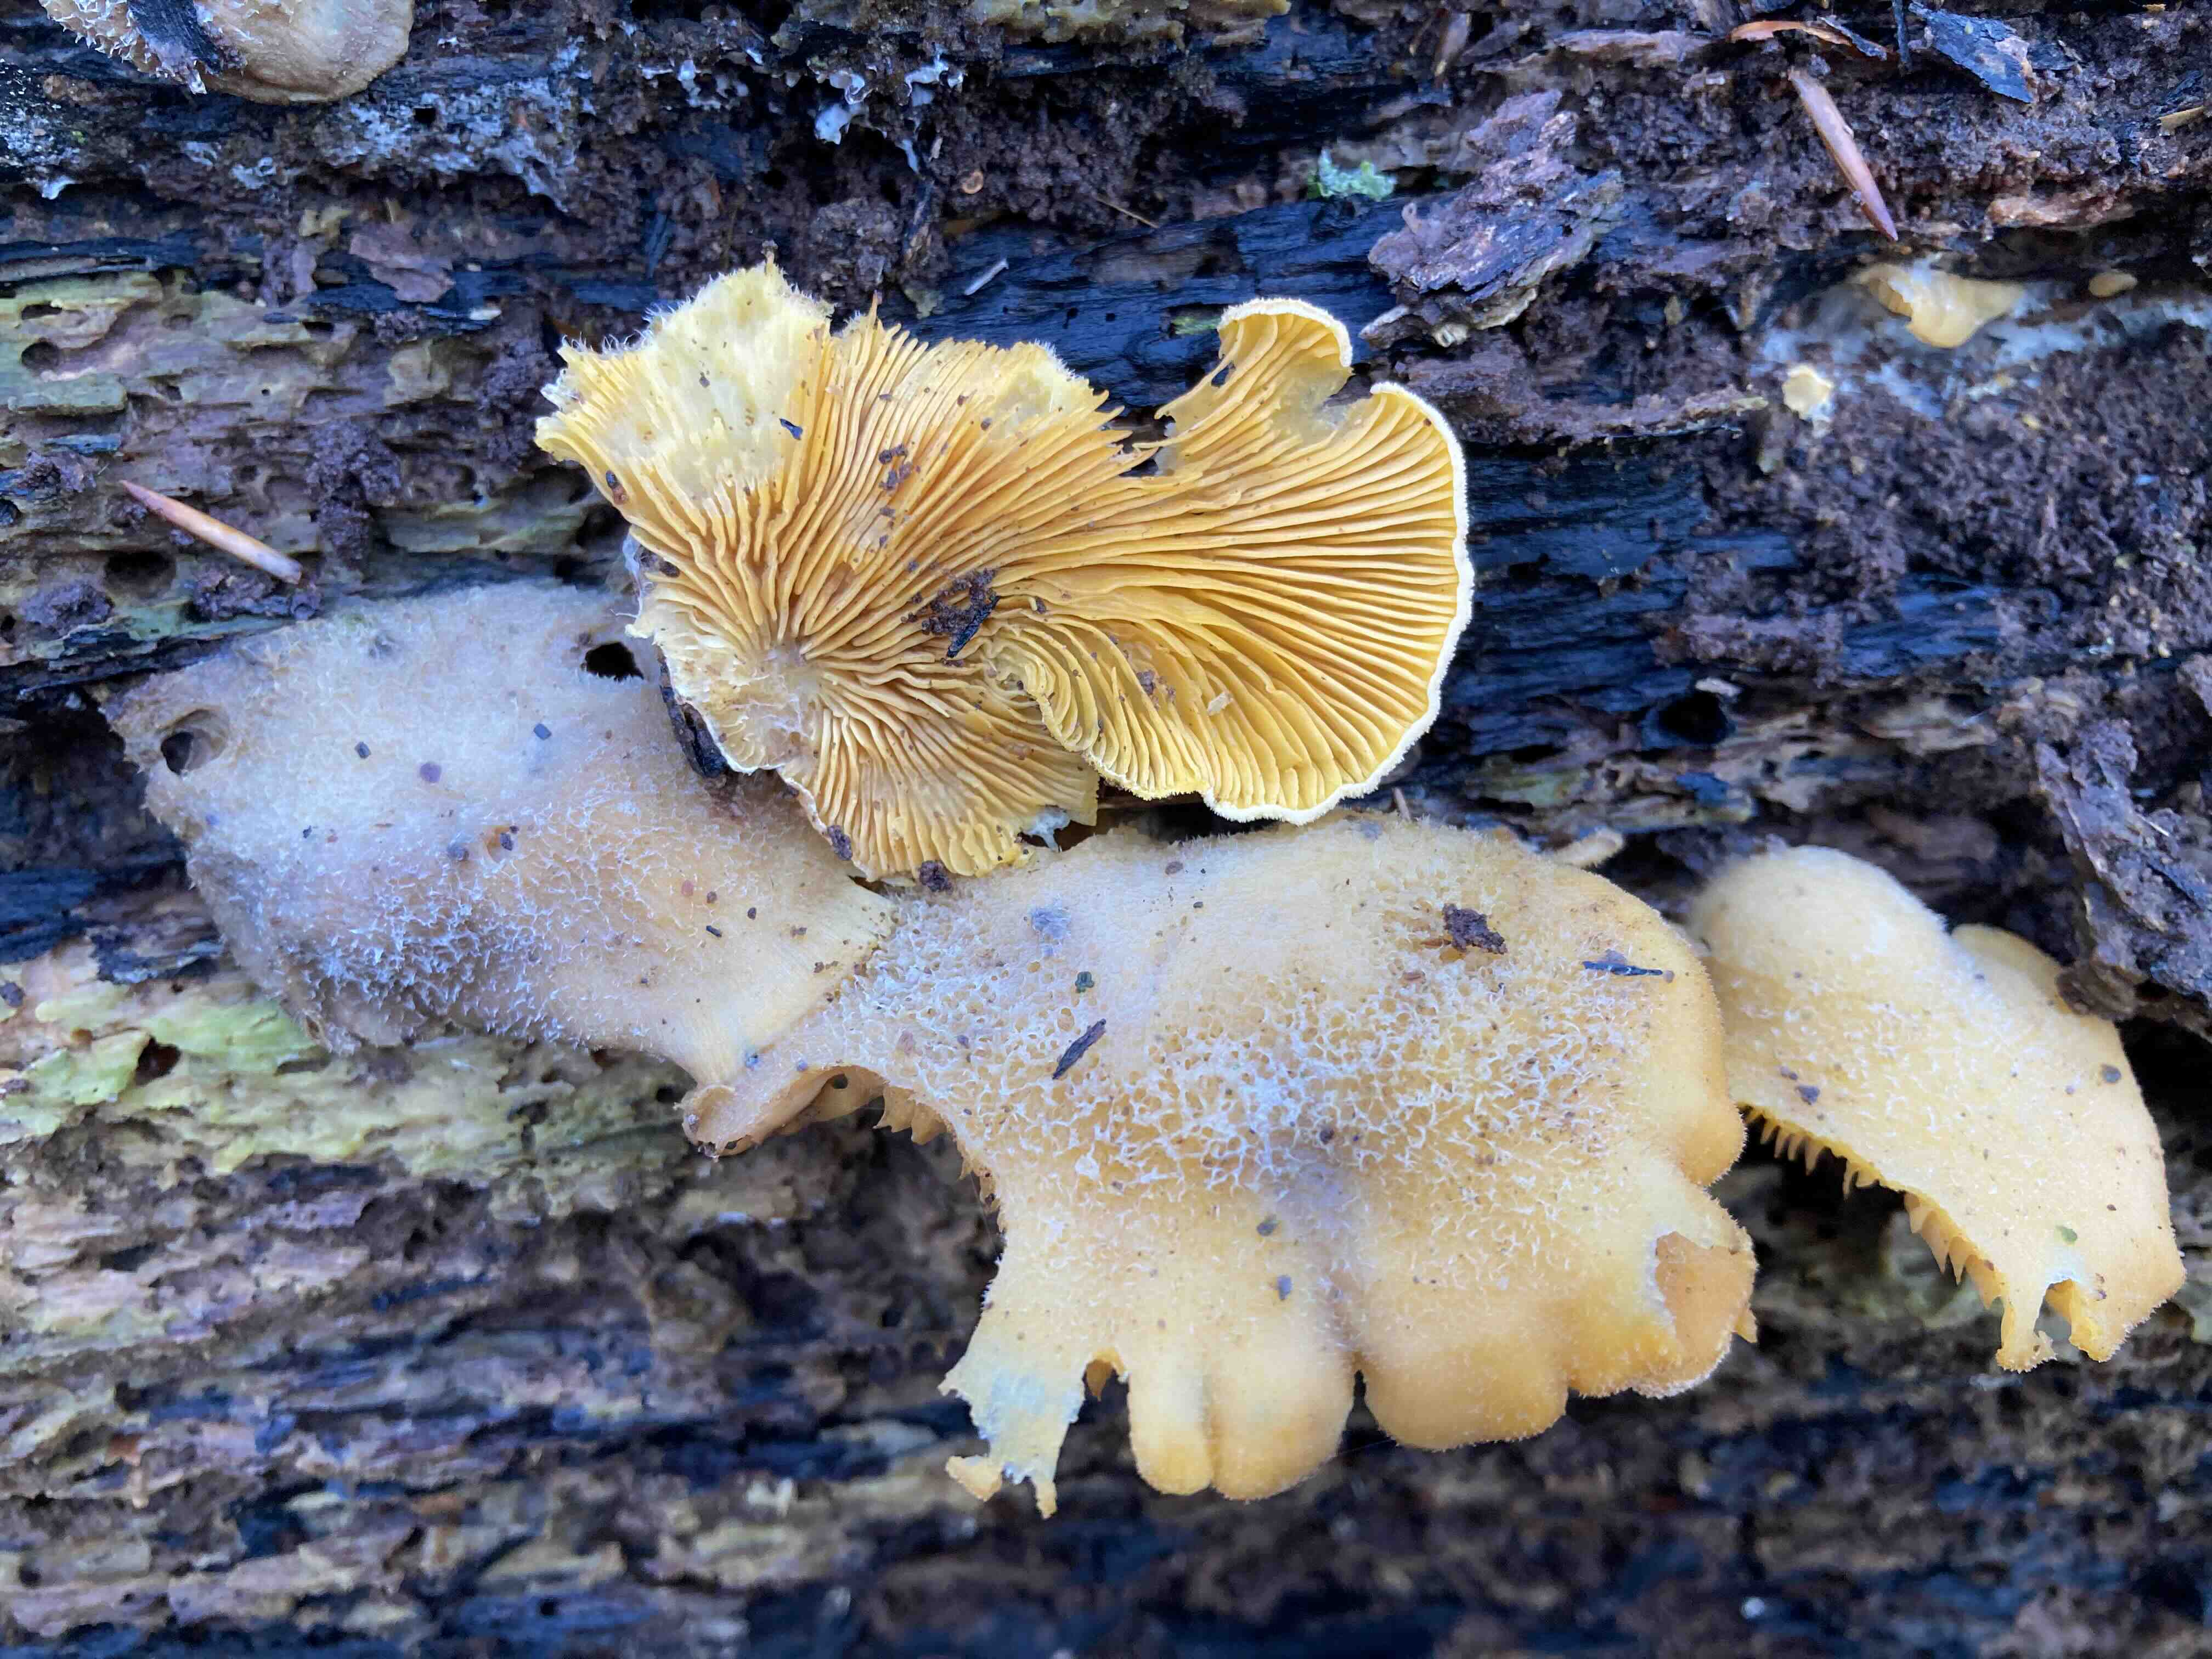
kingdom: Fungi
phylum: Basidiomycota
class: Agaricomycetes
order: Agaricales
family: Phyllotopsidaceae
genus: Phyllotopsis
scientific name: Phyllotopsis nidulans
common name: okkerblad
